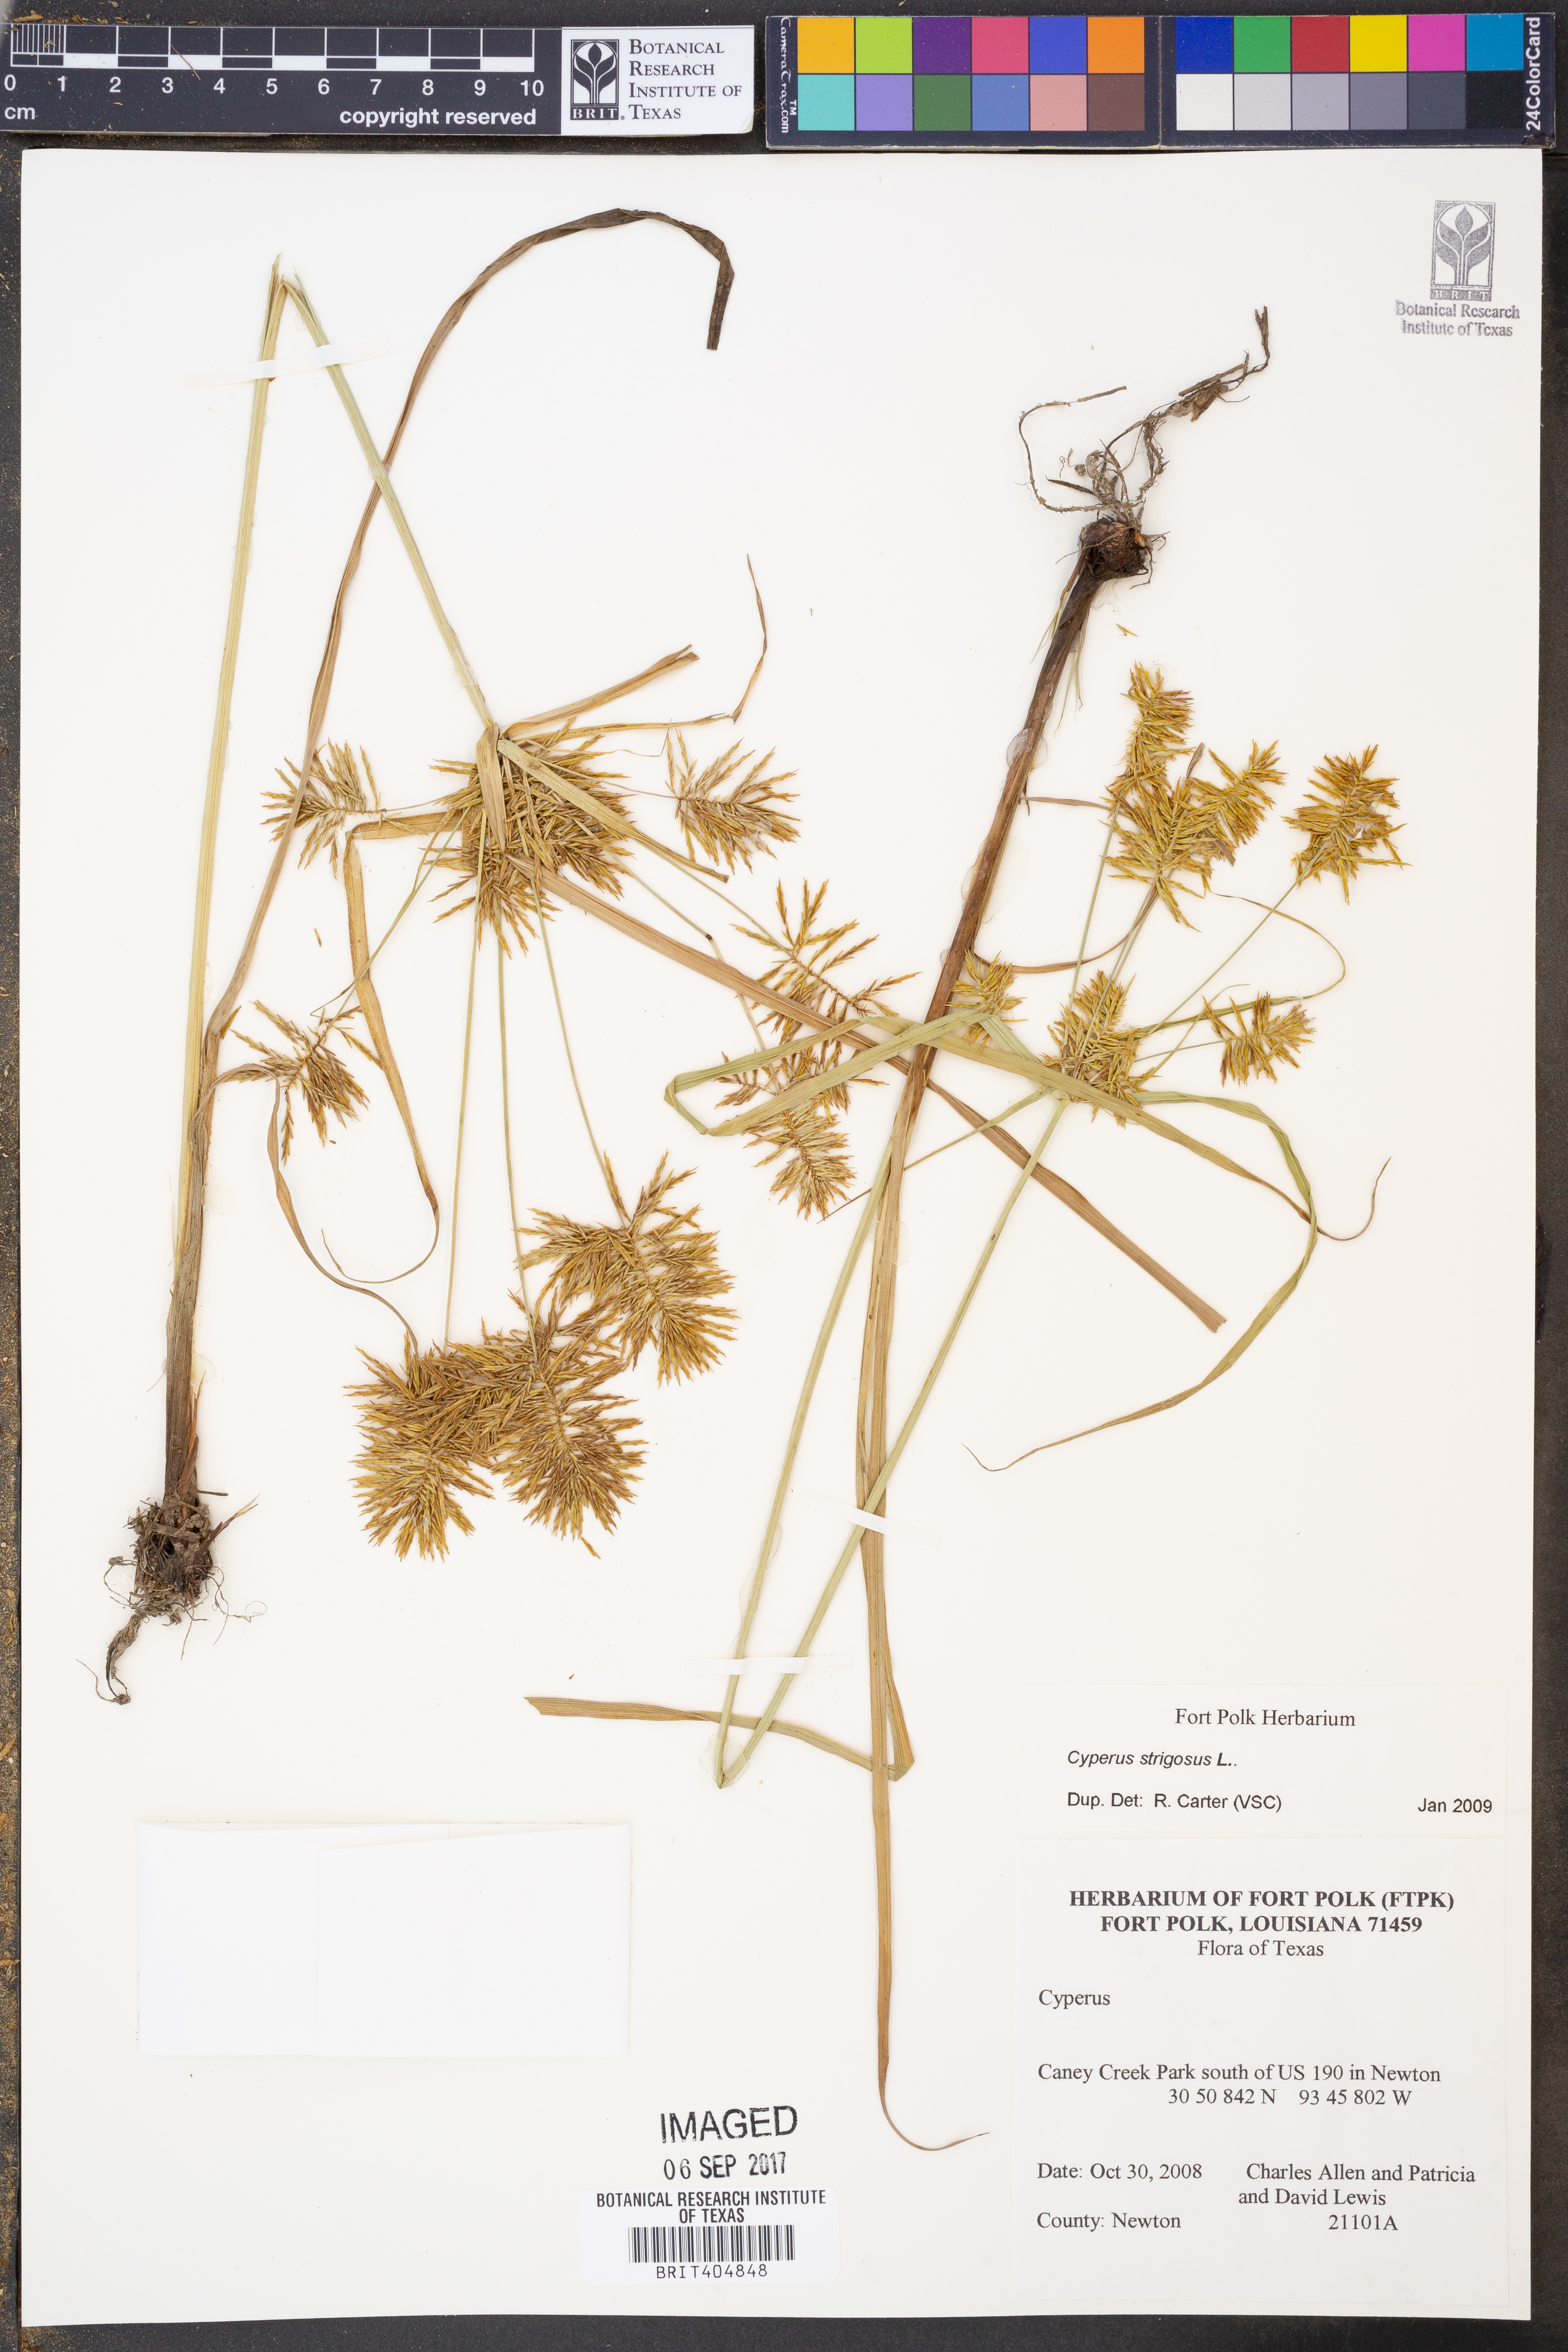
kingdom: Plantae
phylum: Tracheophyta
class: Liliopsida
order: Poales
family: Cyperaceae
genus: Cyperus
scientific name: Cyperus strigosus
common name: False nutsedge
